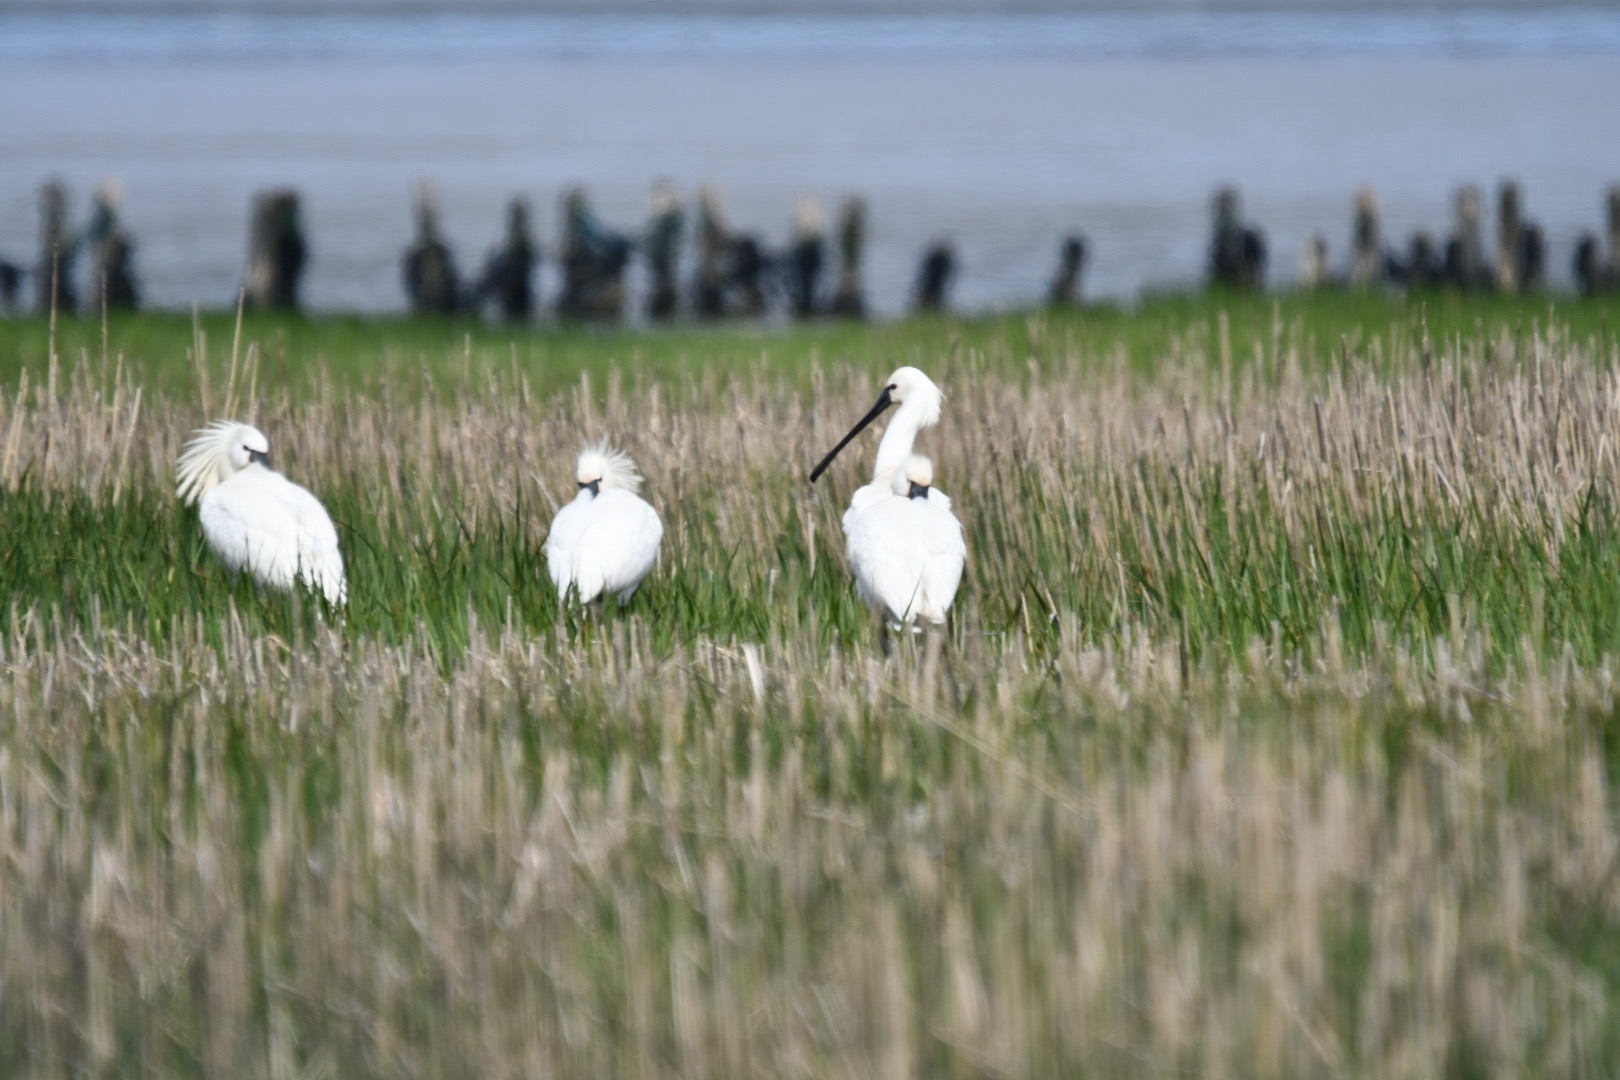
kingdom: Animalia
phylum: Chordata
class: Aves
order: Pelecaniformes
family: Threskiornithidae
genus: Platalea
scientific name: Platalea leucorodia
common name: Skestork
